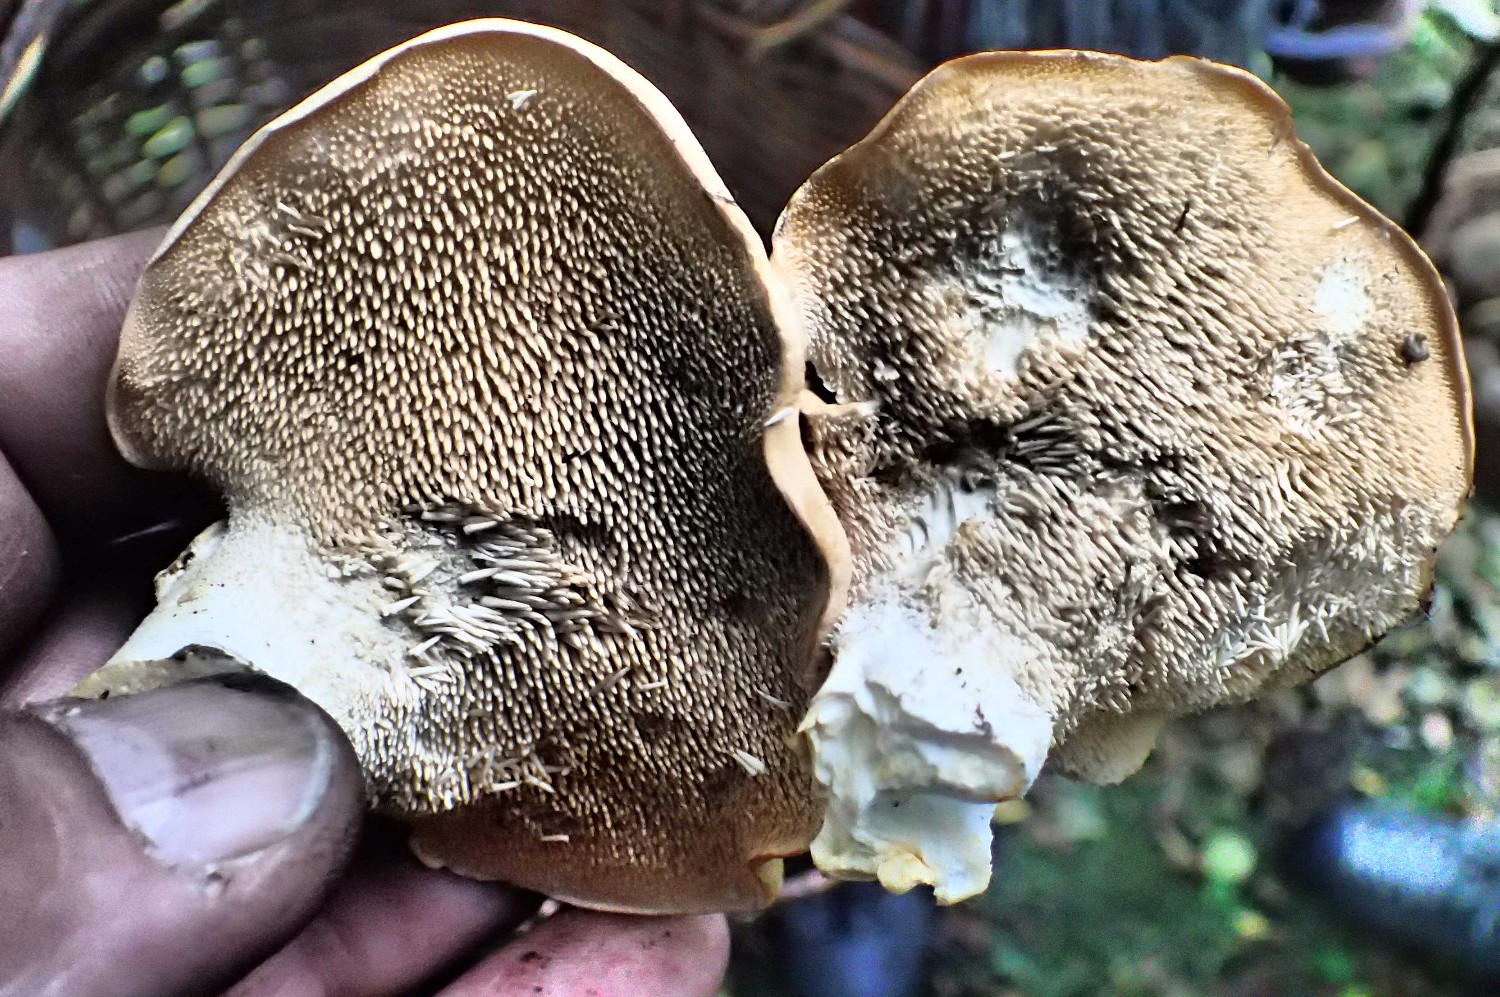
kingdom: Fungi
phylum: Basidiomycota
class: Agaricomycetes
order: Cantharellales
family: Hydnaceae
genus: Hydnum
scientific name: Hydnum repandum
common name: almindelig pigsvamp
